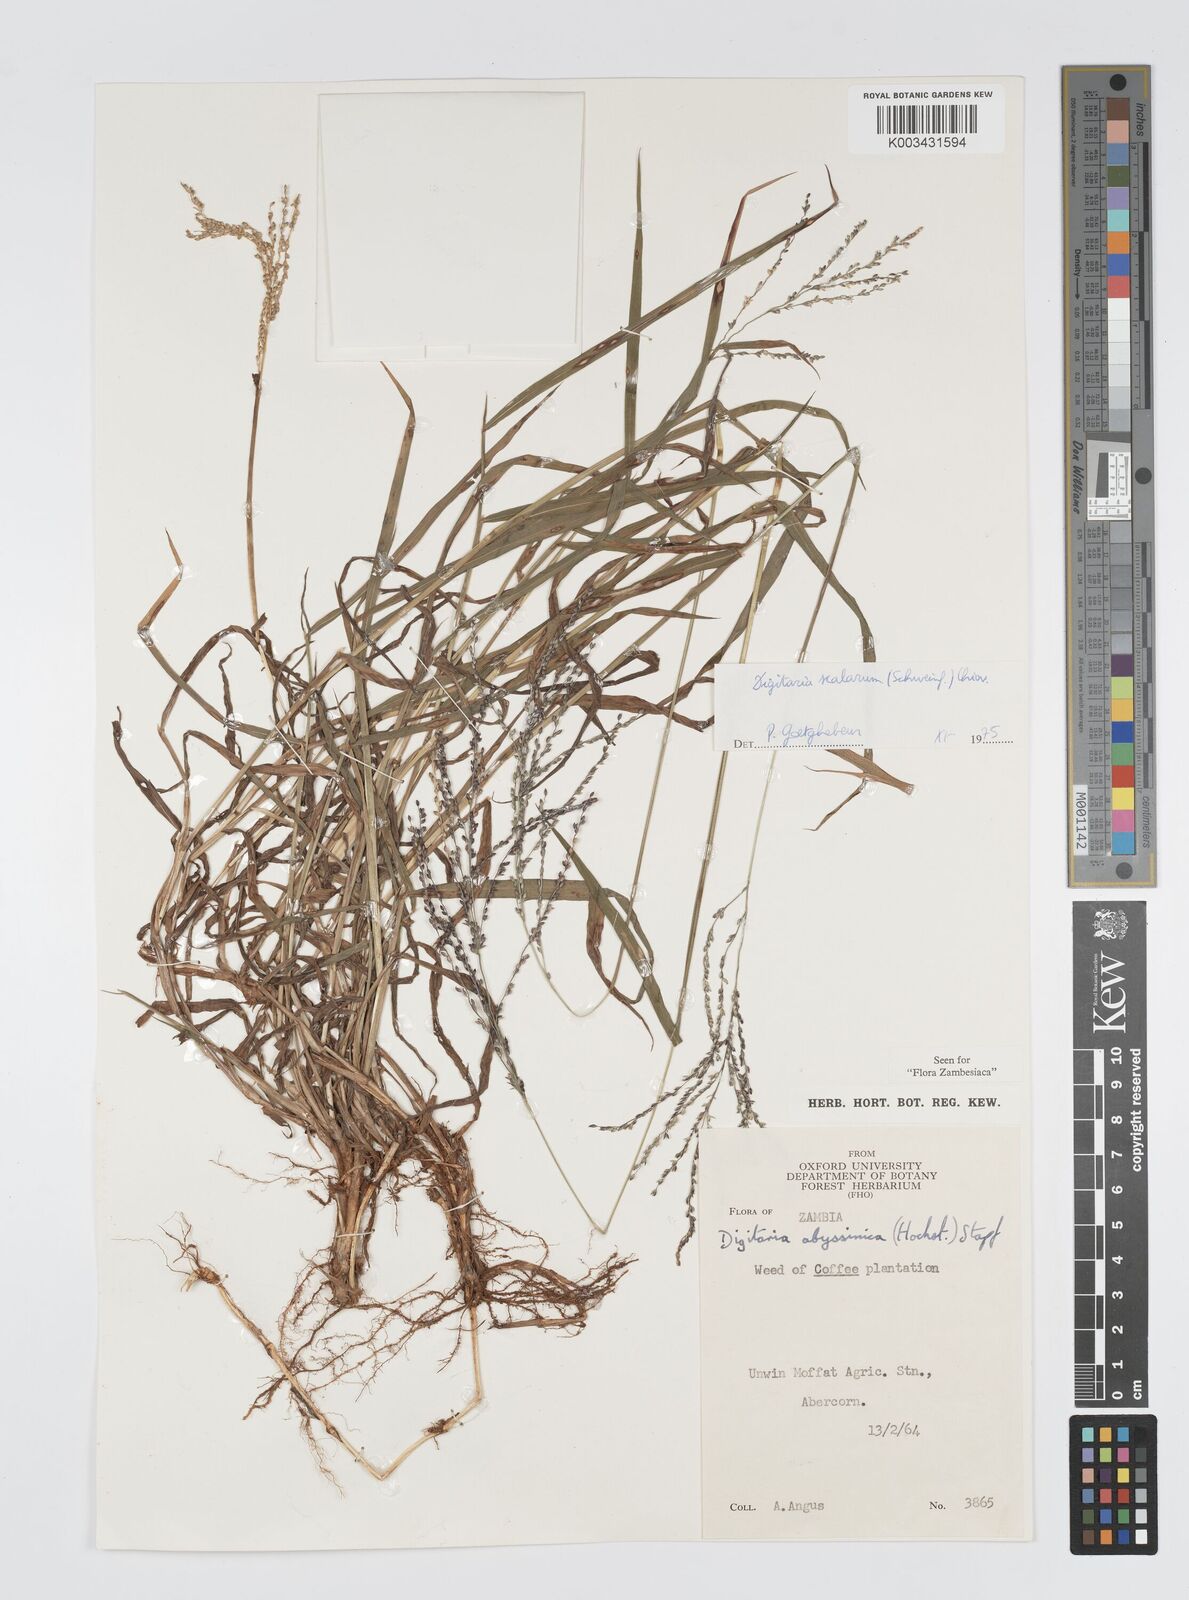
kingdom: Plantae
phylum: Tracheophyta
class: Liliopsida
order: Poales
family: Poaceae
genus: Digitaria
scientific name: Digitaria abyssinica
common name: African couchgrass
